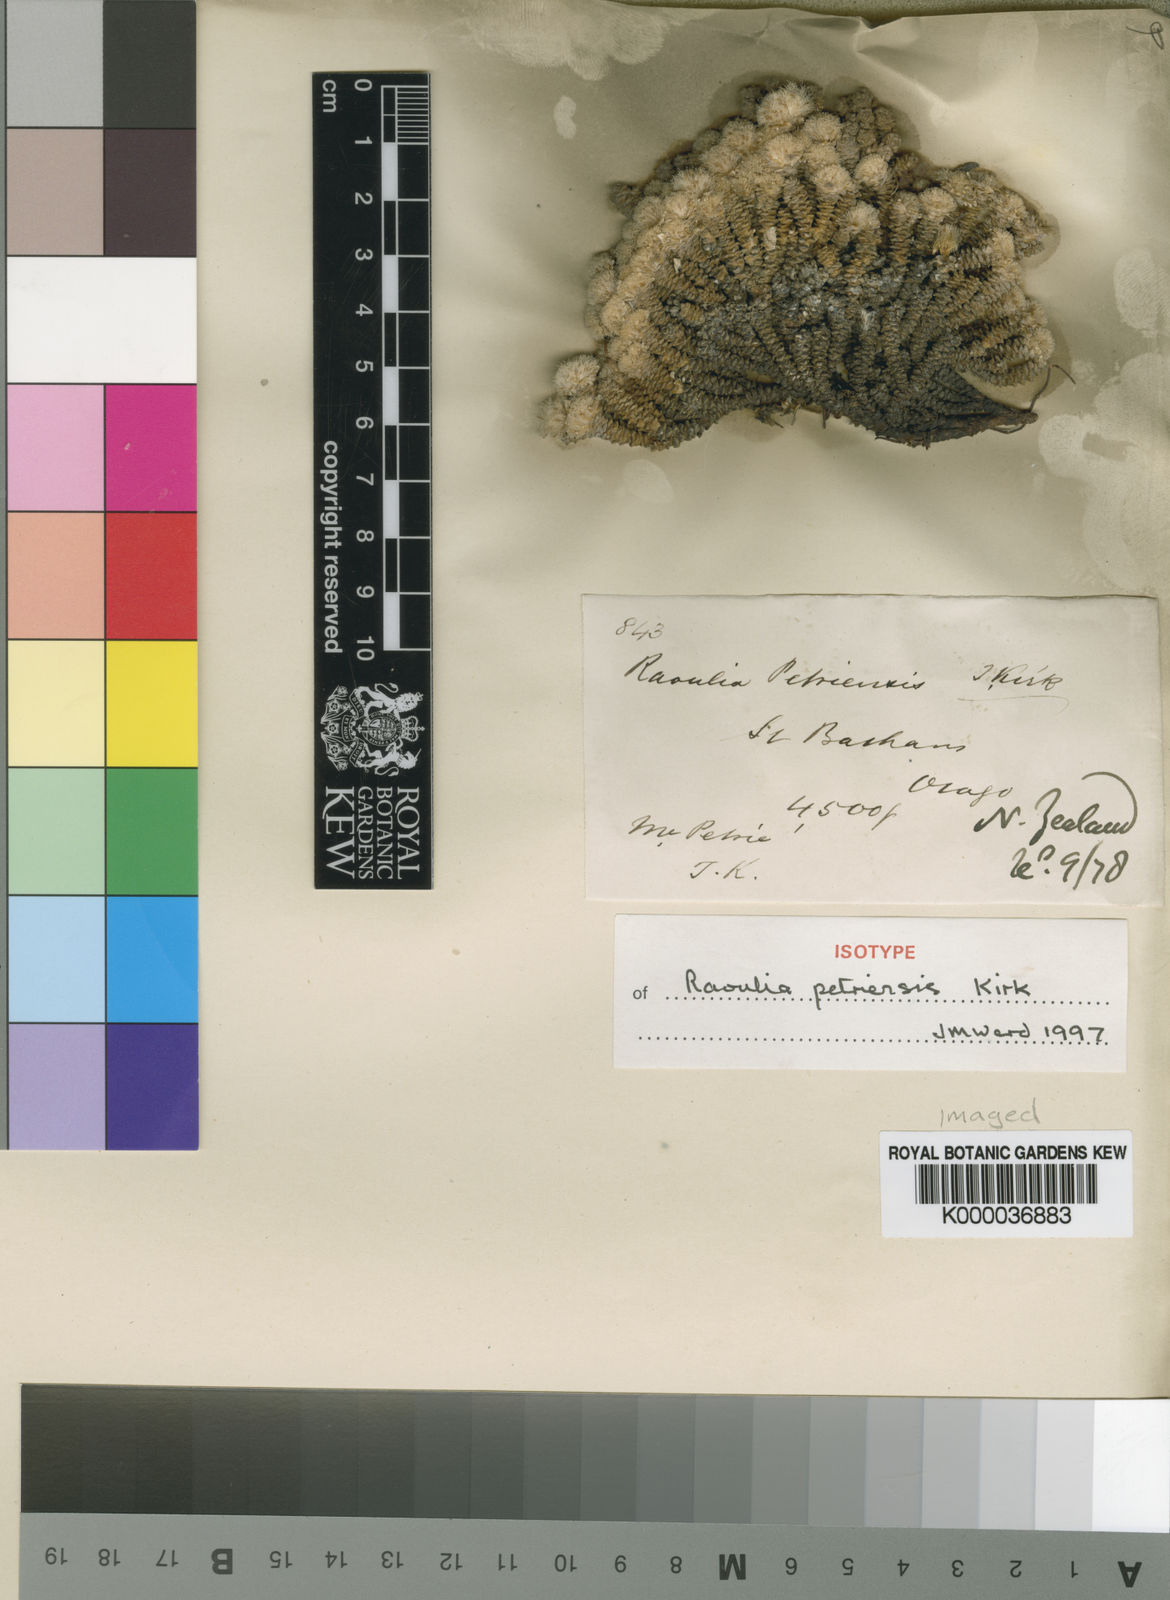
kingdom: Plantae
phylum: Tracheophyta
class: Magnoliopsida
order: Asterales
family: Asteraceae
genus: Raoulia
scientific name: Raoulia petriensis
